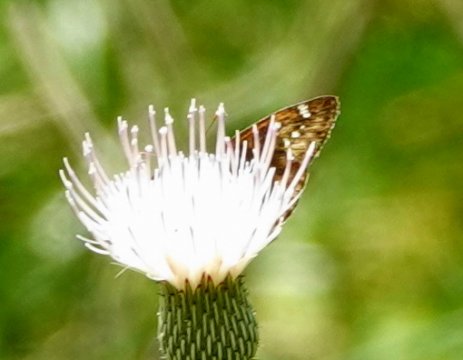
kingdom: Animalia
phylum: Arthropoda
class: Insecta
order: Lepidoptera
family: Hesperiidae
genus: Gesta
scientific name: Gesta
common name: Horace's Duskywing
